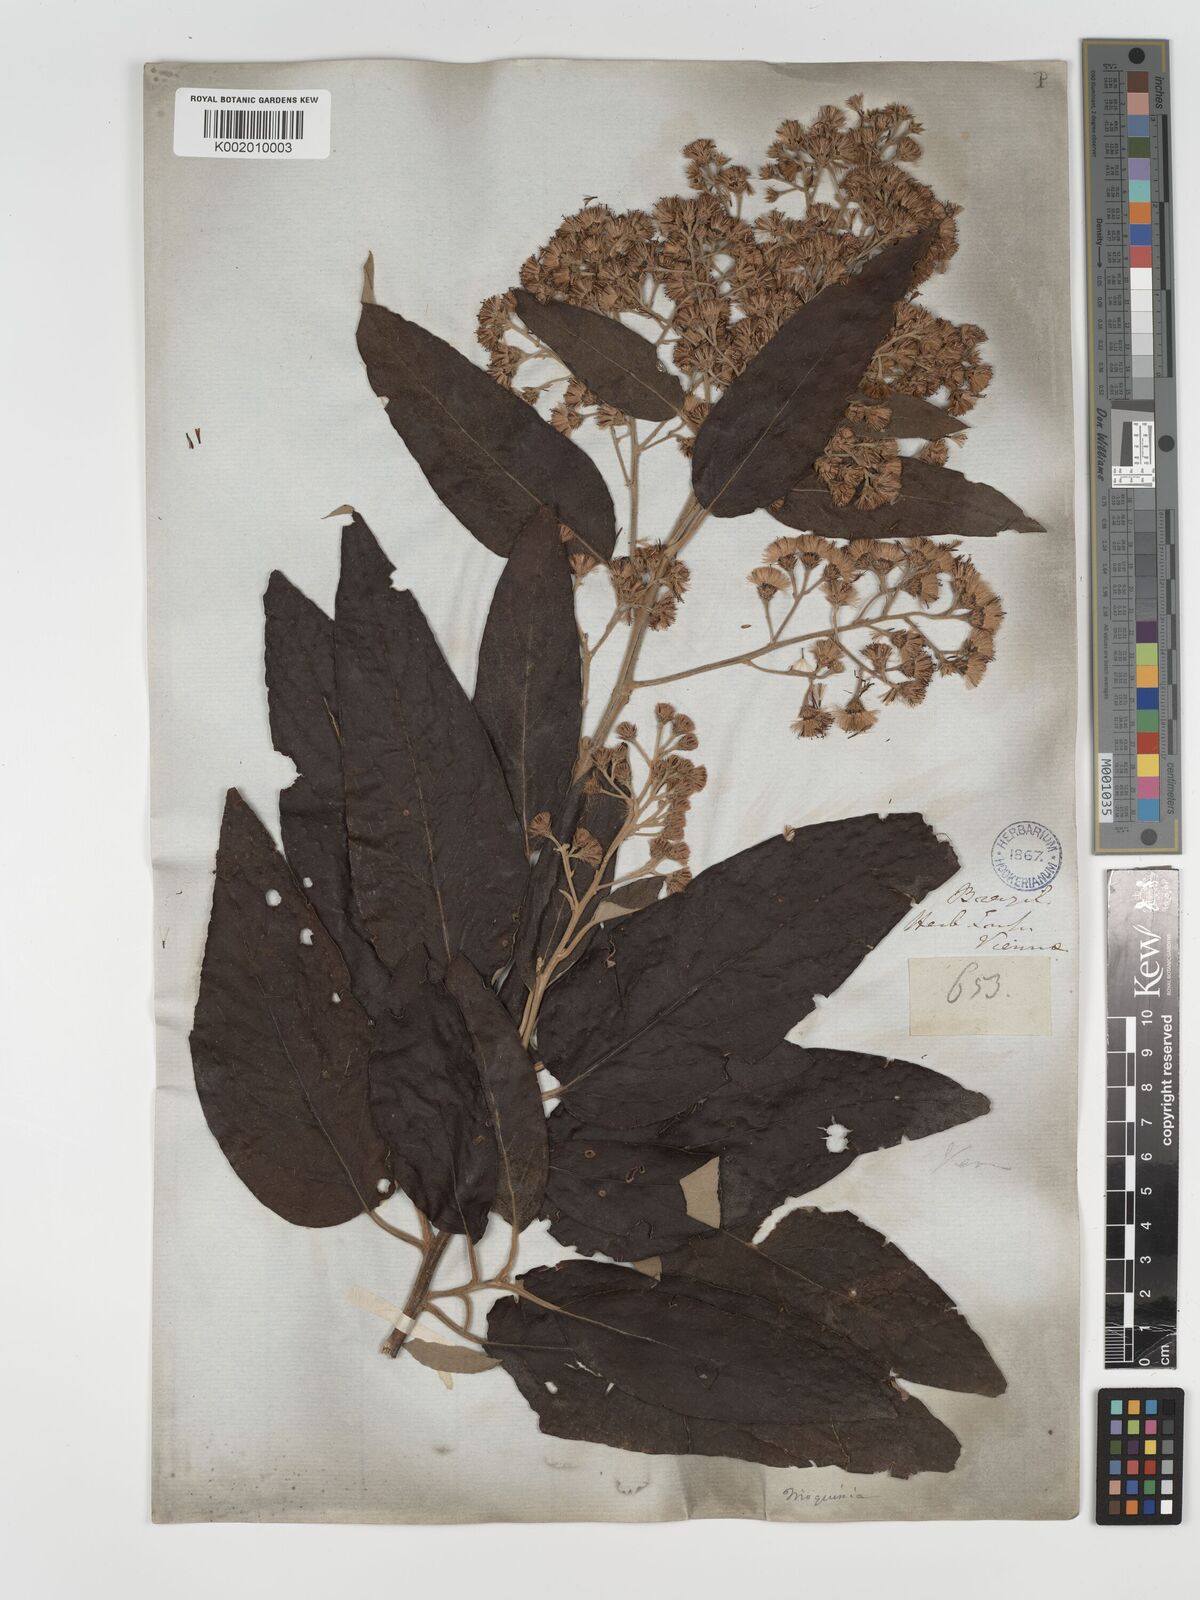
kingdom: Plantae
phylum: Tracheophyta
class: Magnoliopsida
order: Asterales
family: Asteraceae
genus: Moquiniastrum
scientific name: Moquiniastrum polymorphum
